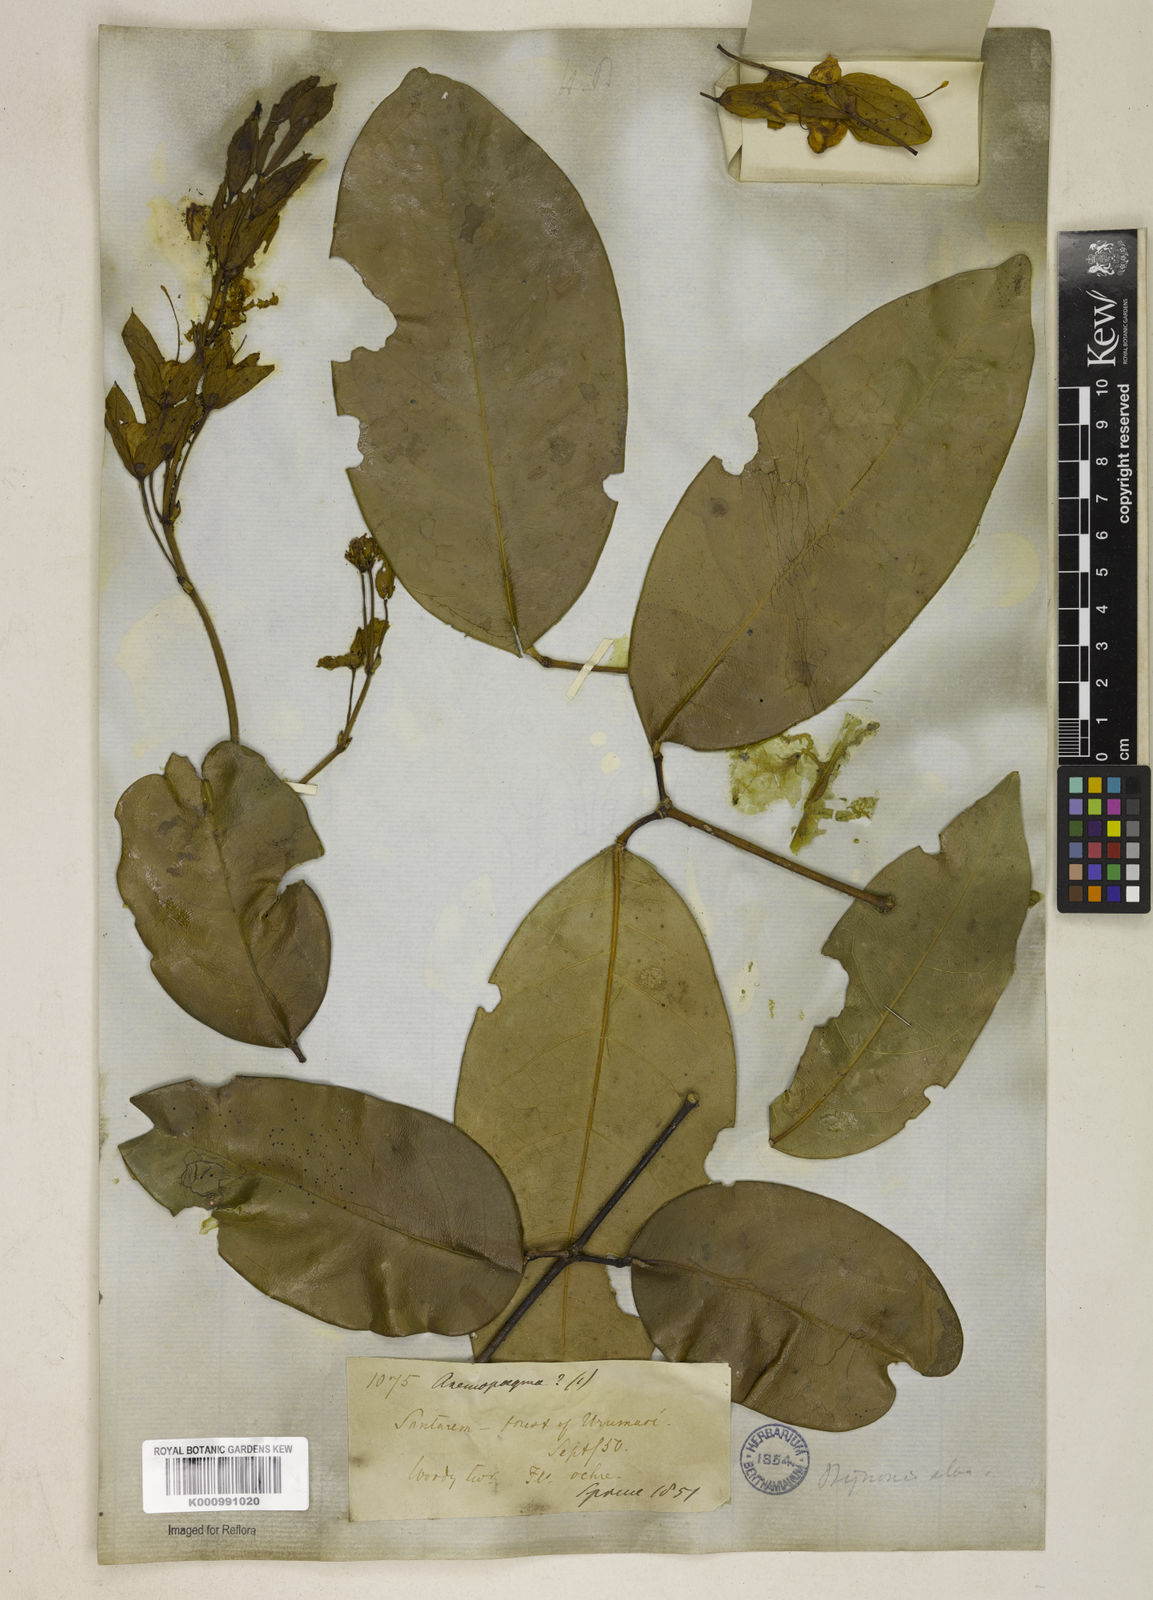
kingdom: Plantae
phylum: Tracheophyta
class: Magnoliopsida
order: Lamiales
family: Bignoniaceae
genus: Adenocalymma
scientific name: Adenocalymma
